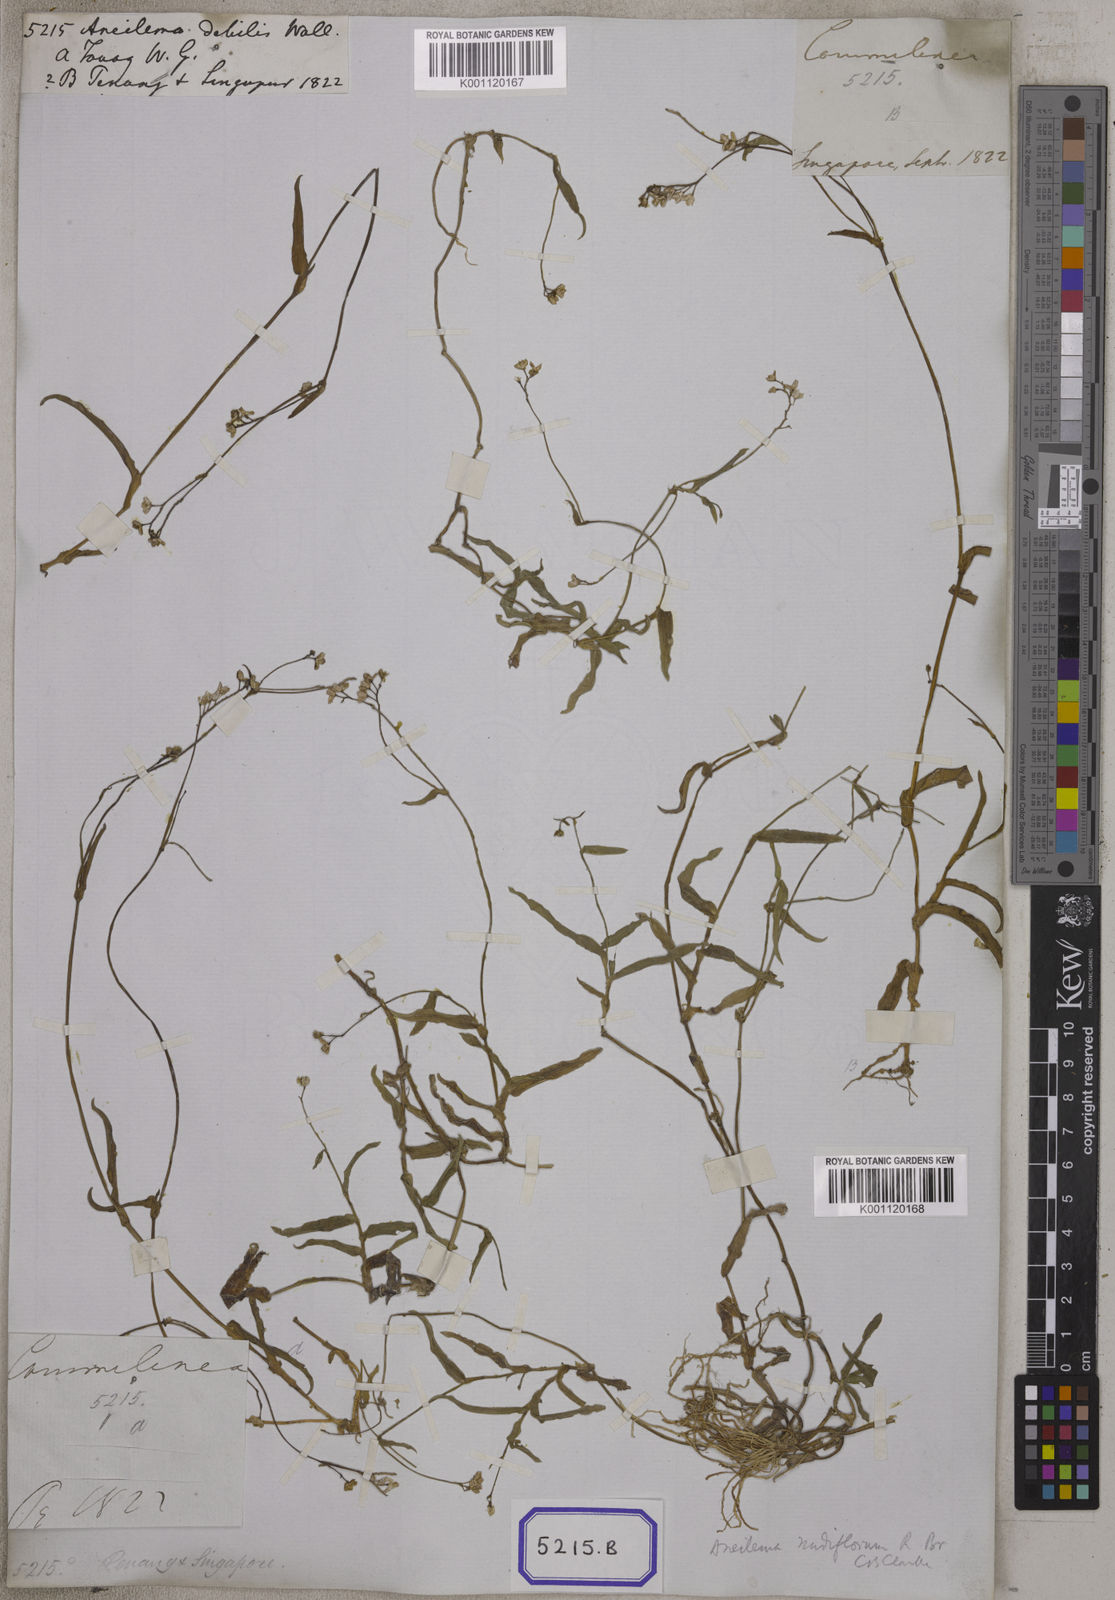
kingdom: Plantae
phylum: Tracheophyta
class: Liliopsida
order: Commelinales
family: Commelinaceae
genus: Murdannia
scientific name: Murdannia nudiflora
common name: Nakedstem dewflower
